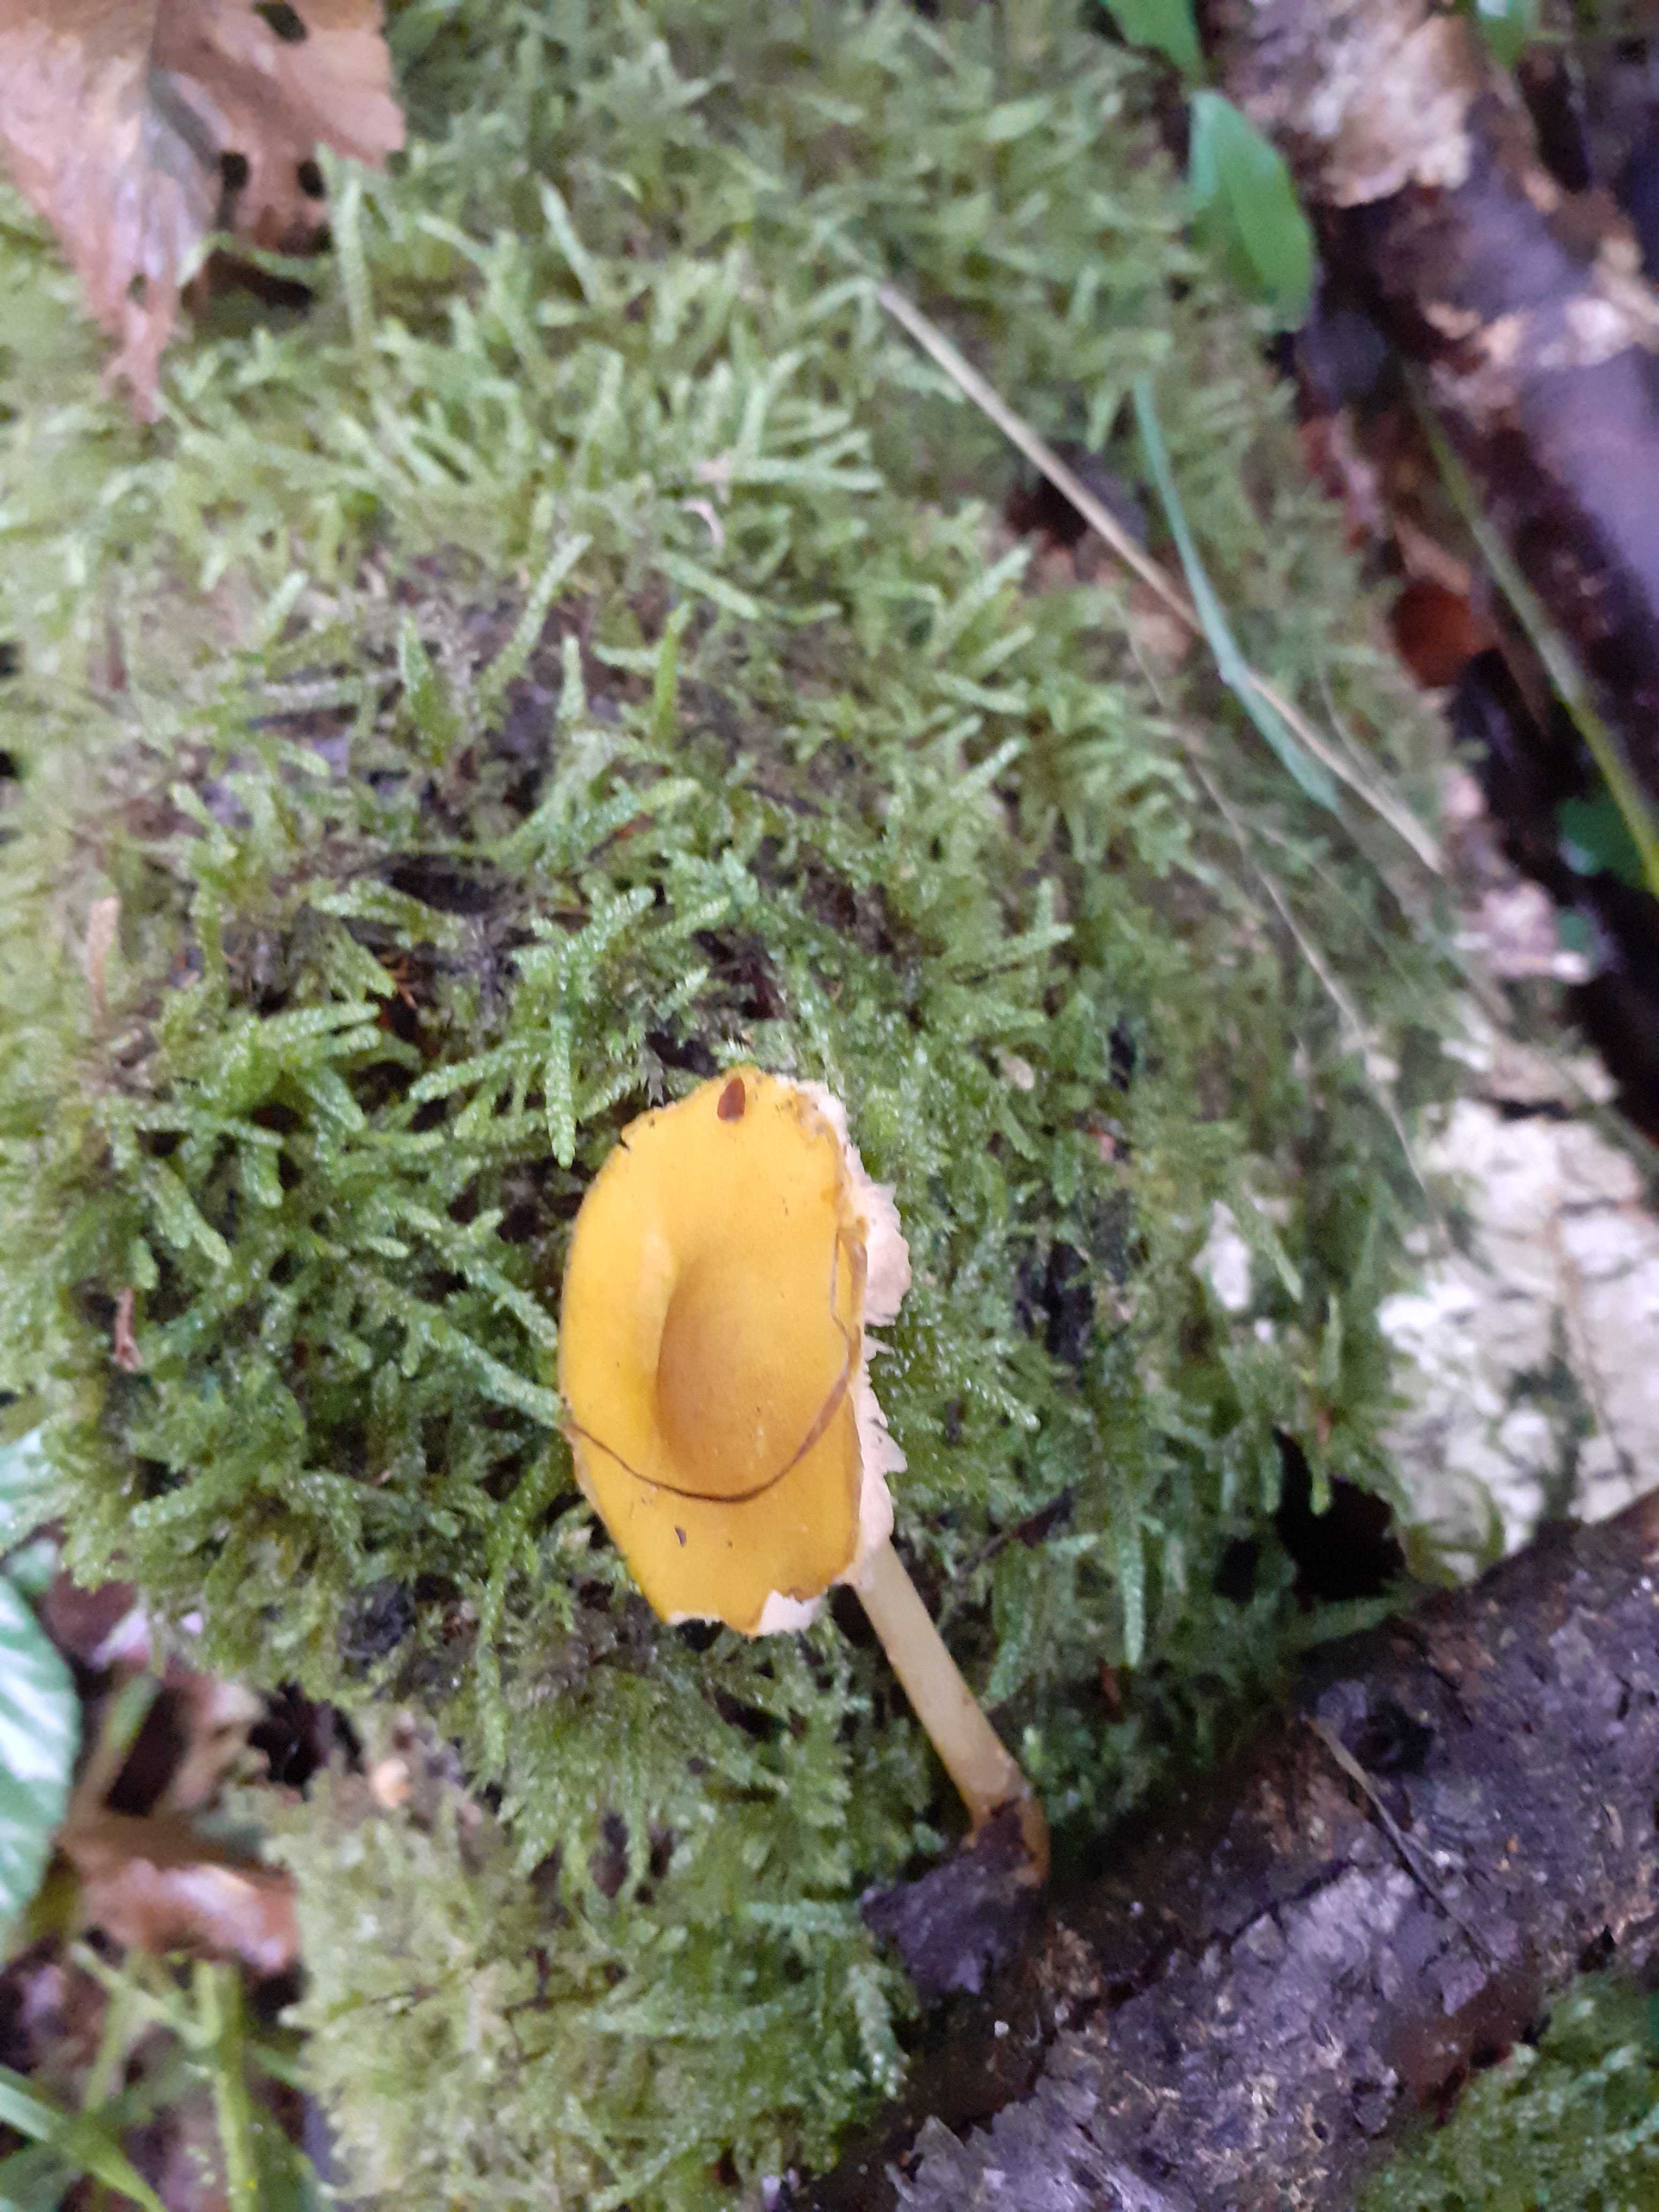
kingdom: Fungi
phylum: Basidiomycota
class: Agaricomycetes
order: Agaricales
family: Pluteaceae
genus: Pluteus
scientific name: Pluteus romellii
